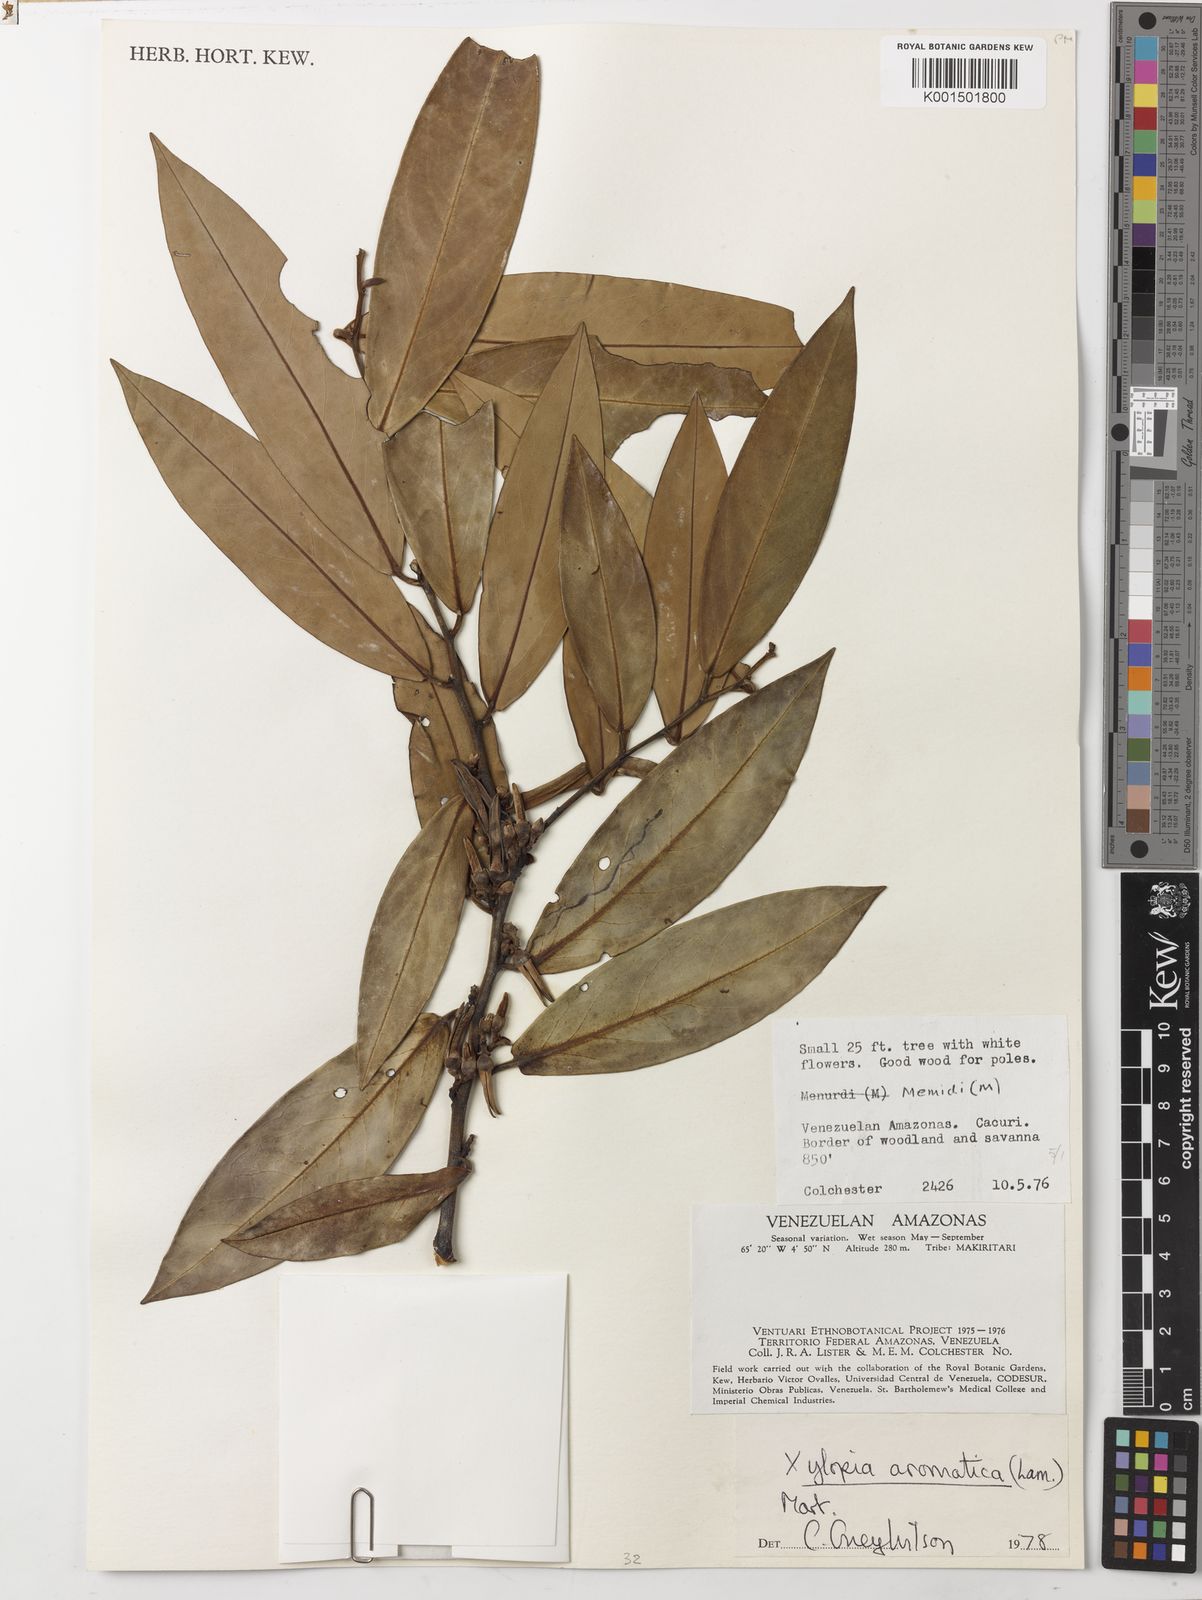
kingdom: Plantae
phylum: Tracheophyta
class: Magnoliopsida
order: Magnoliales
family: Annonaceae
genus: Xylopia
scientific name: Xylopia aromatica
